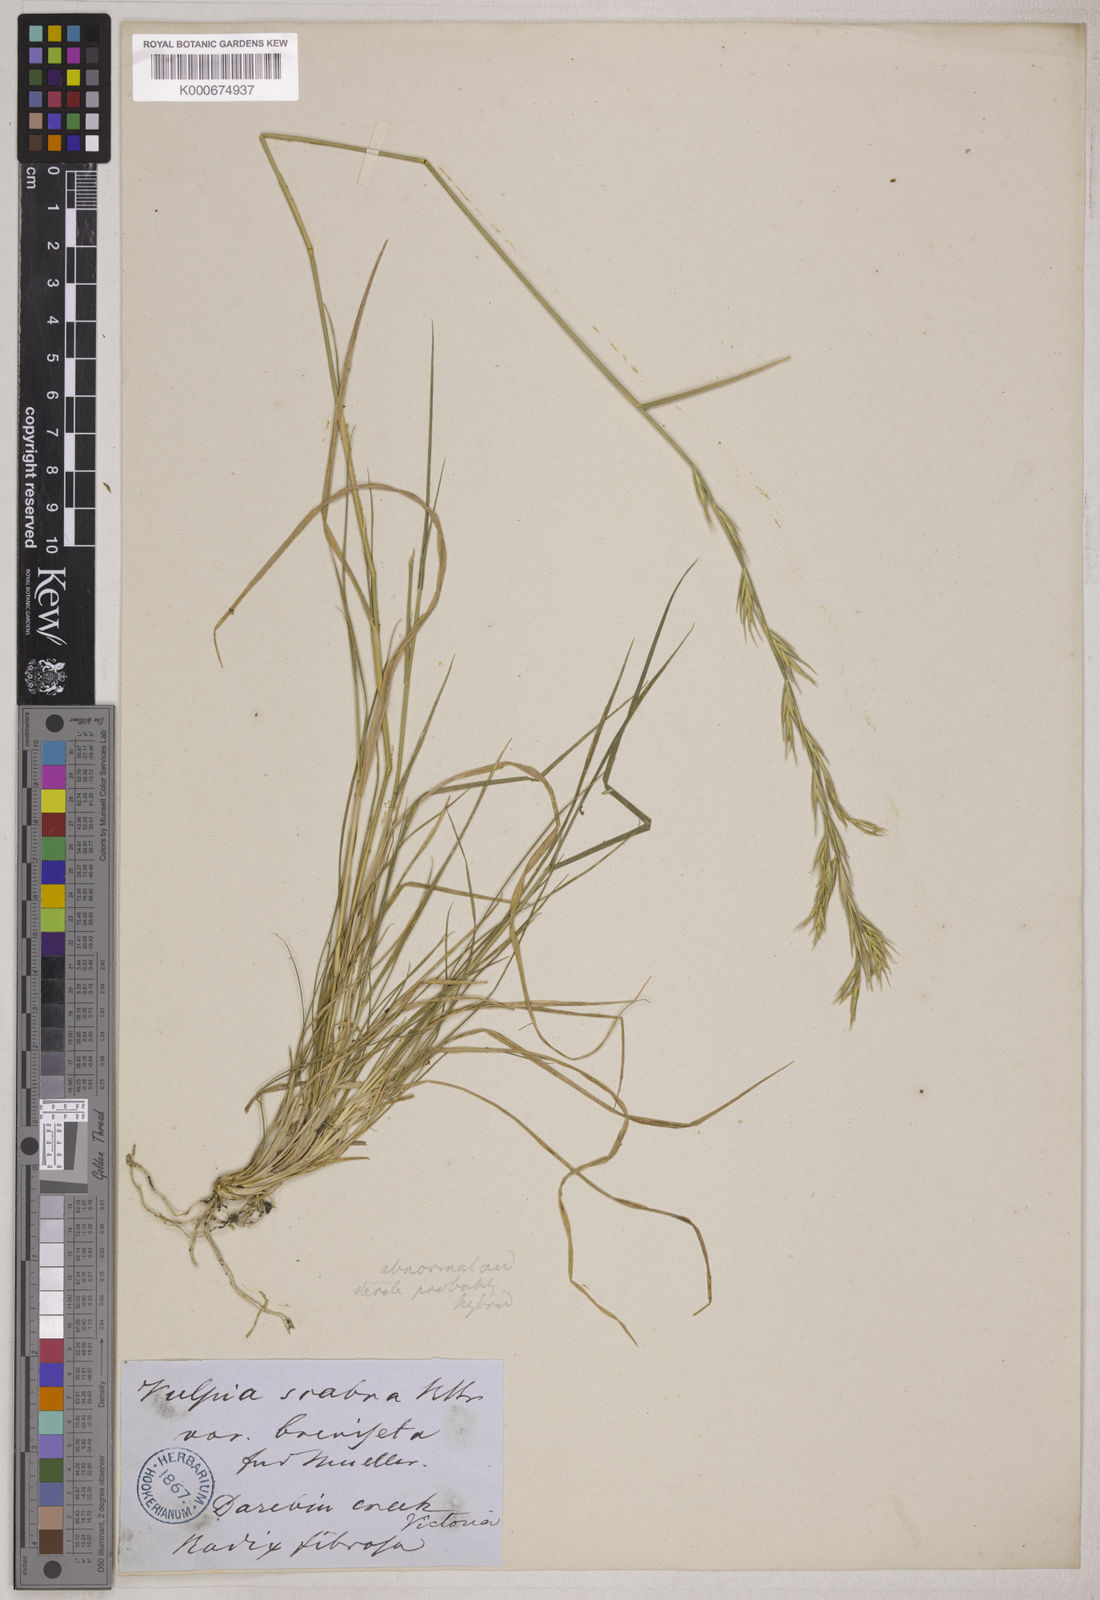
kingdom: Plantae
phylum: Tracheophyta
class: Liliopsida
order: Poales
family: Poaceae
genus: Elymus
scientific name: Elymus
